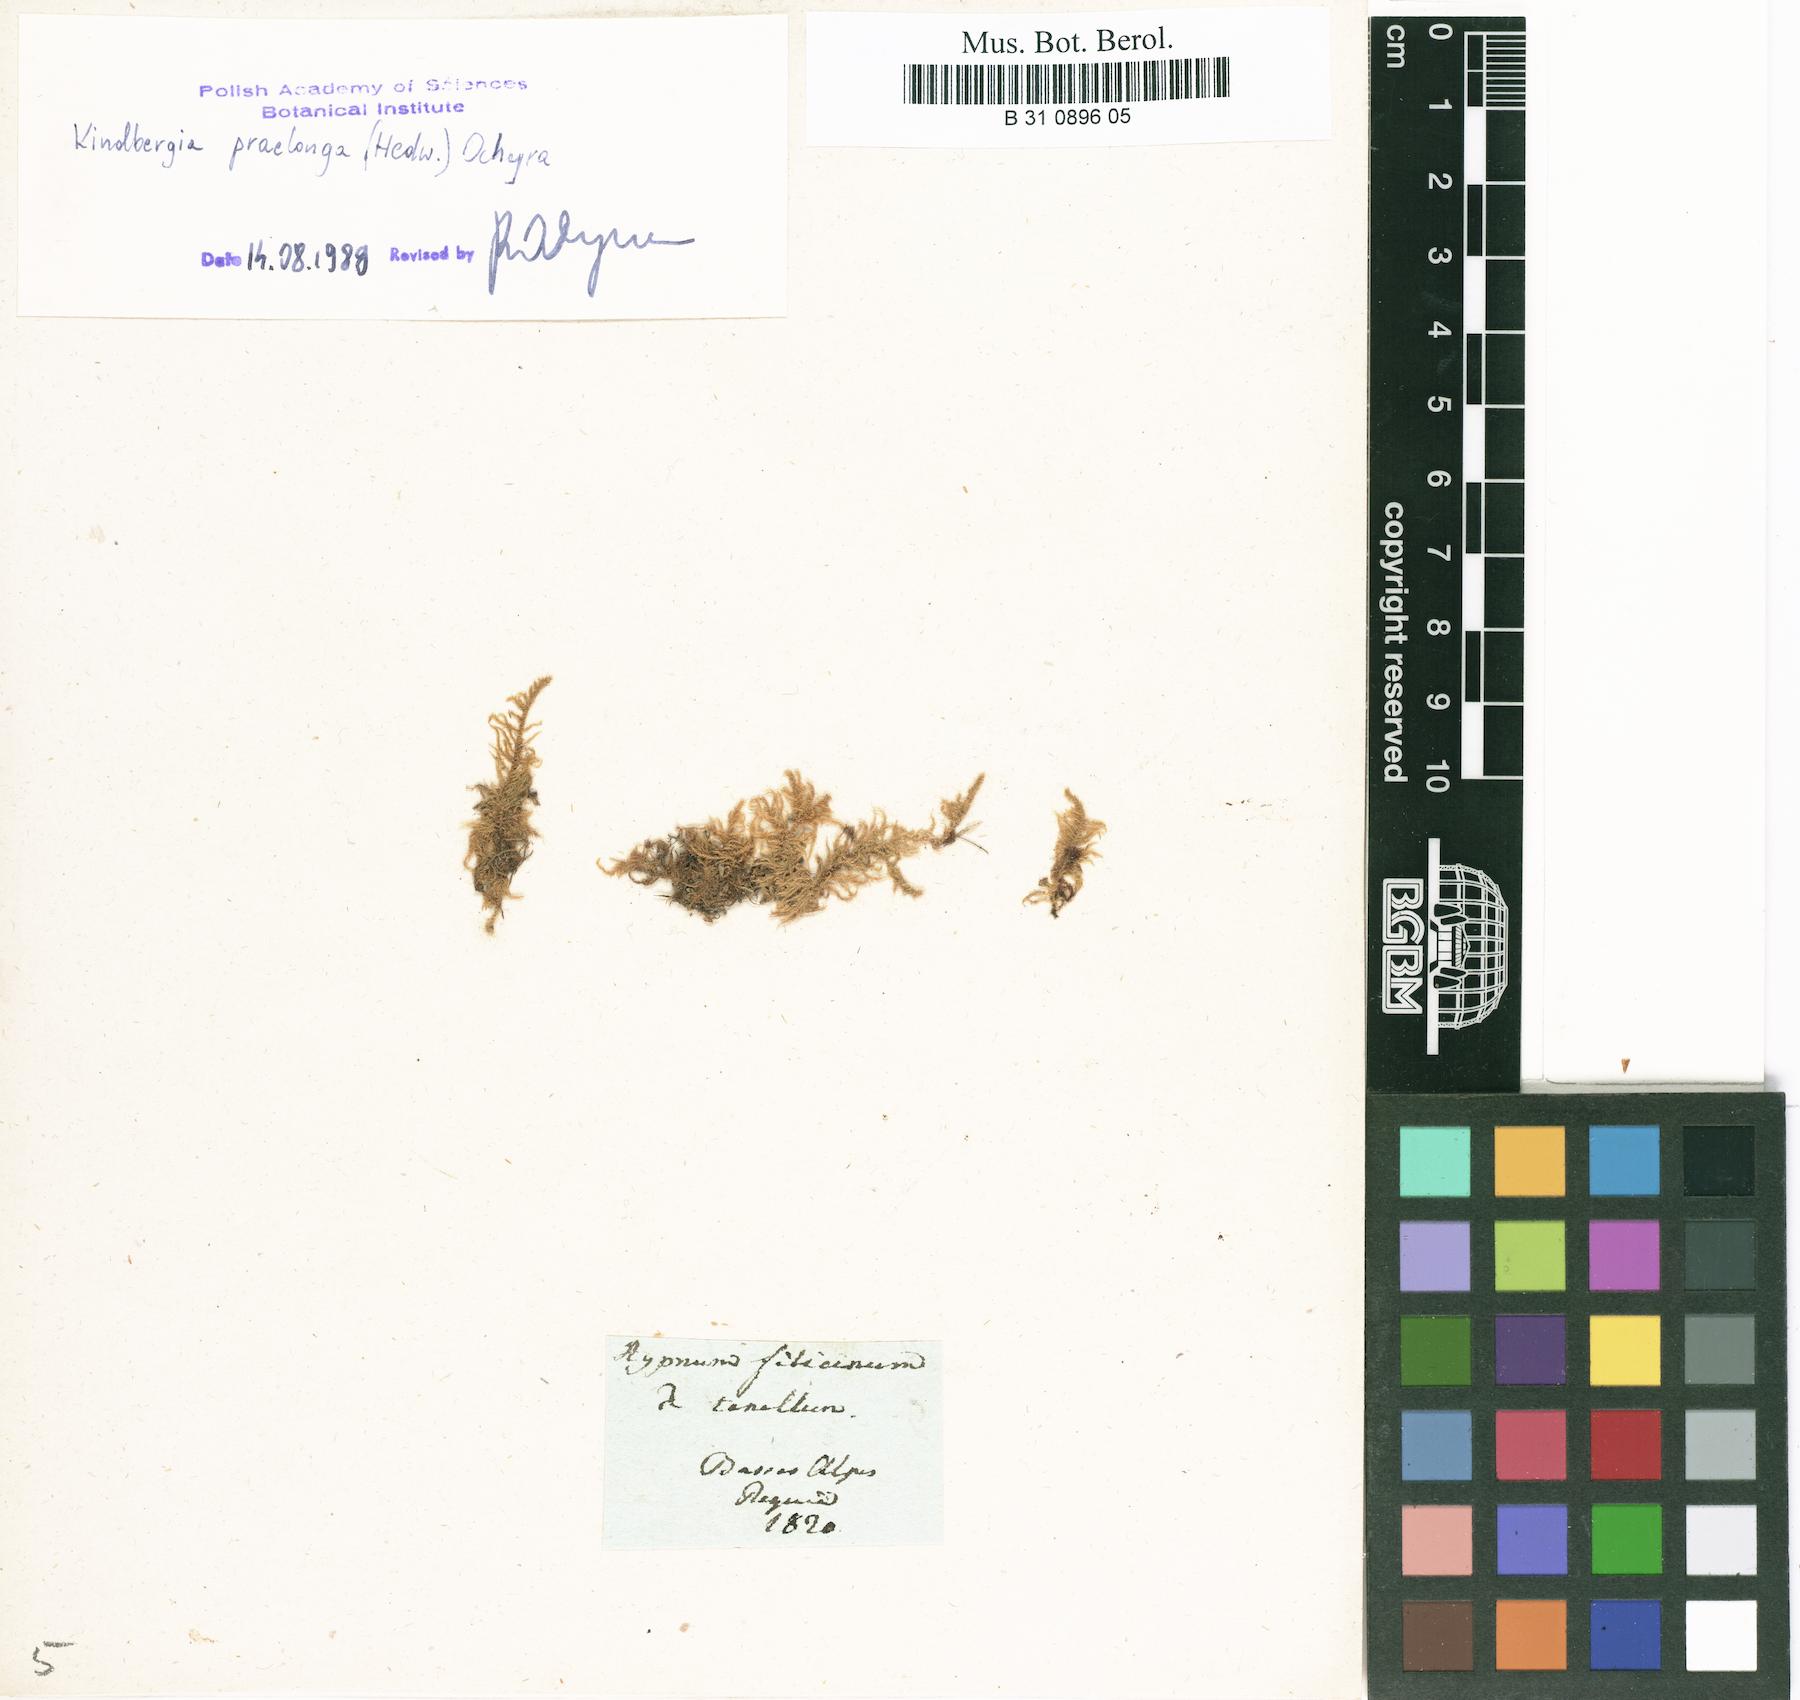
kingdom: Plantae
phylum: Bryophyta
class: Bryopsida
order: Hypnales
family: Amblystegiaceae
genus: Cratoneuron
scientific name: Cratoneuron filicinum
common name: Fern-leaved hook moss
